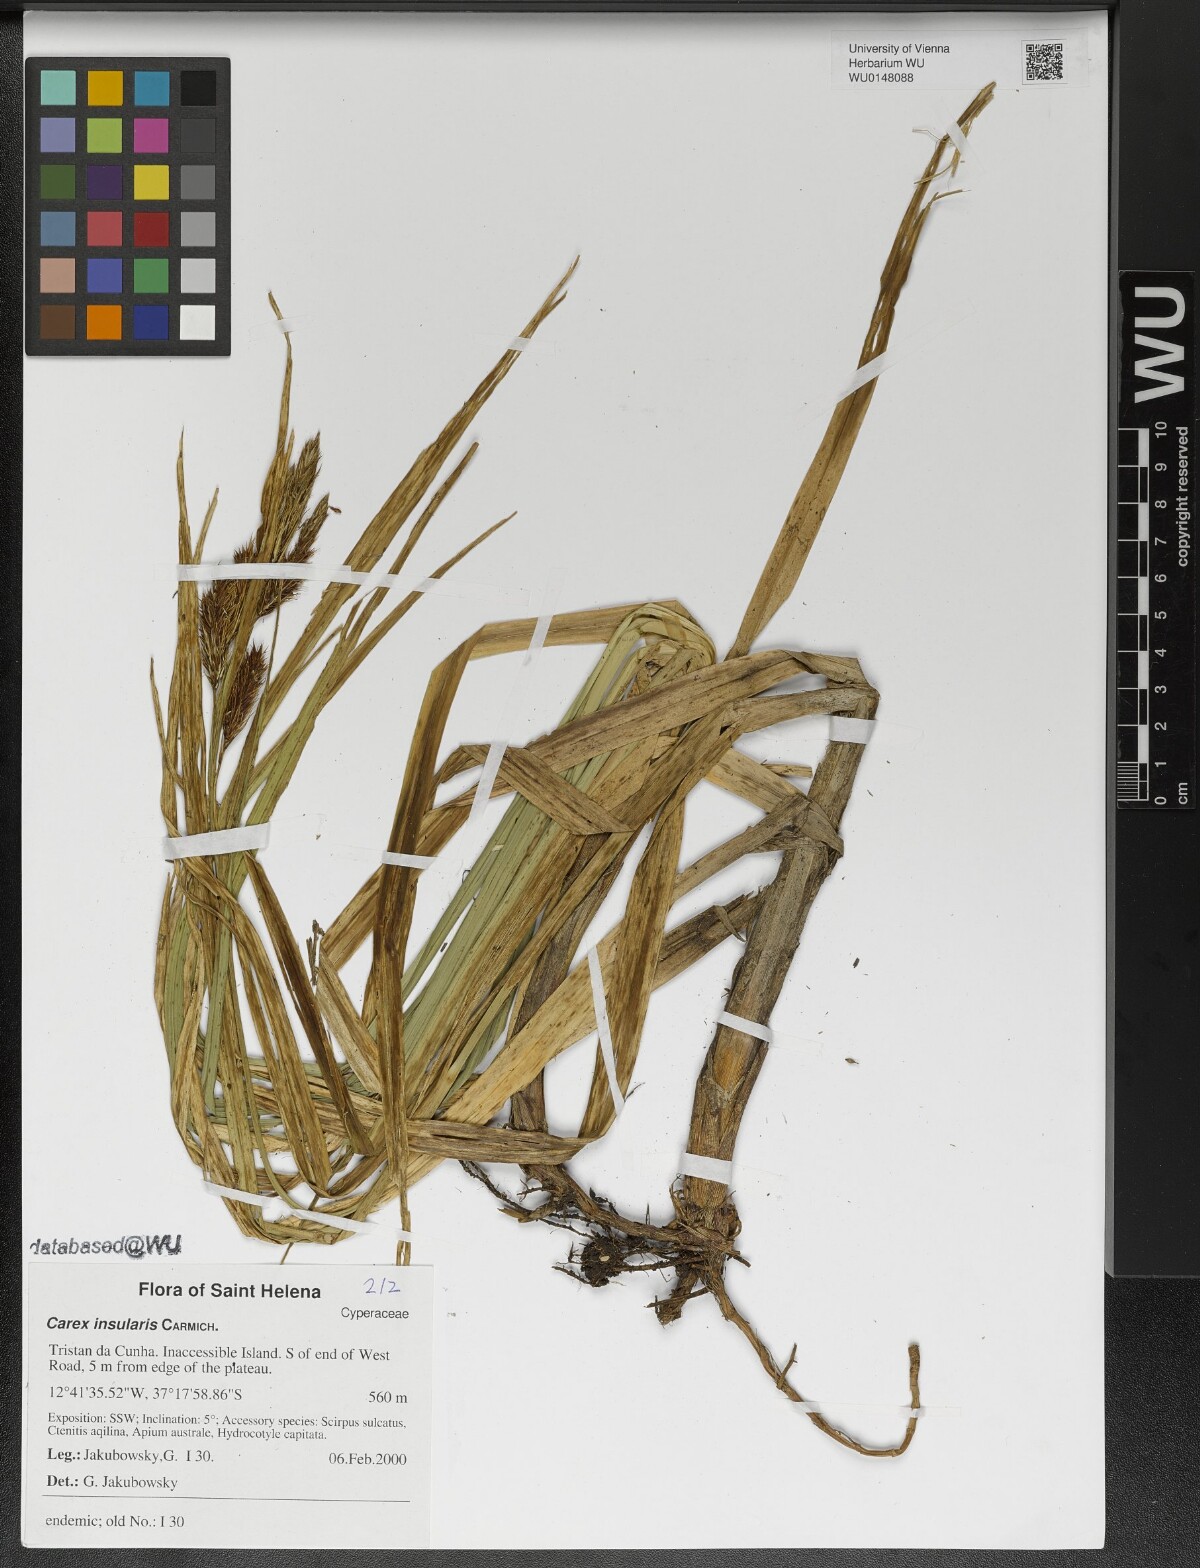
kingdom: Plantae
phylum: Tracheophyta
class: Liliopsida
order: Poales
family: Cyperaceae
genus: Carex
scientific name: Carex insularis
